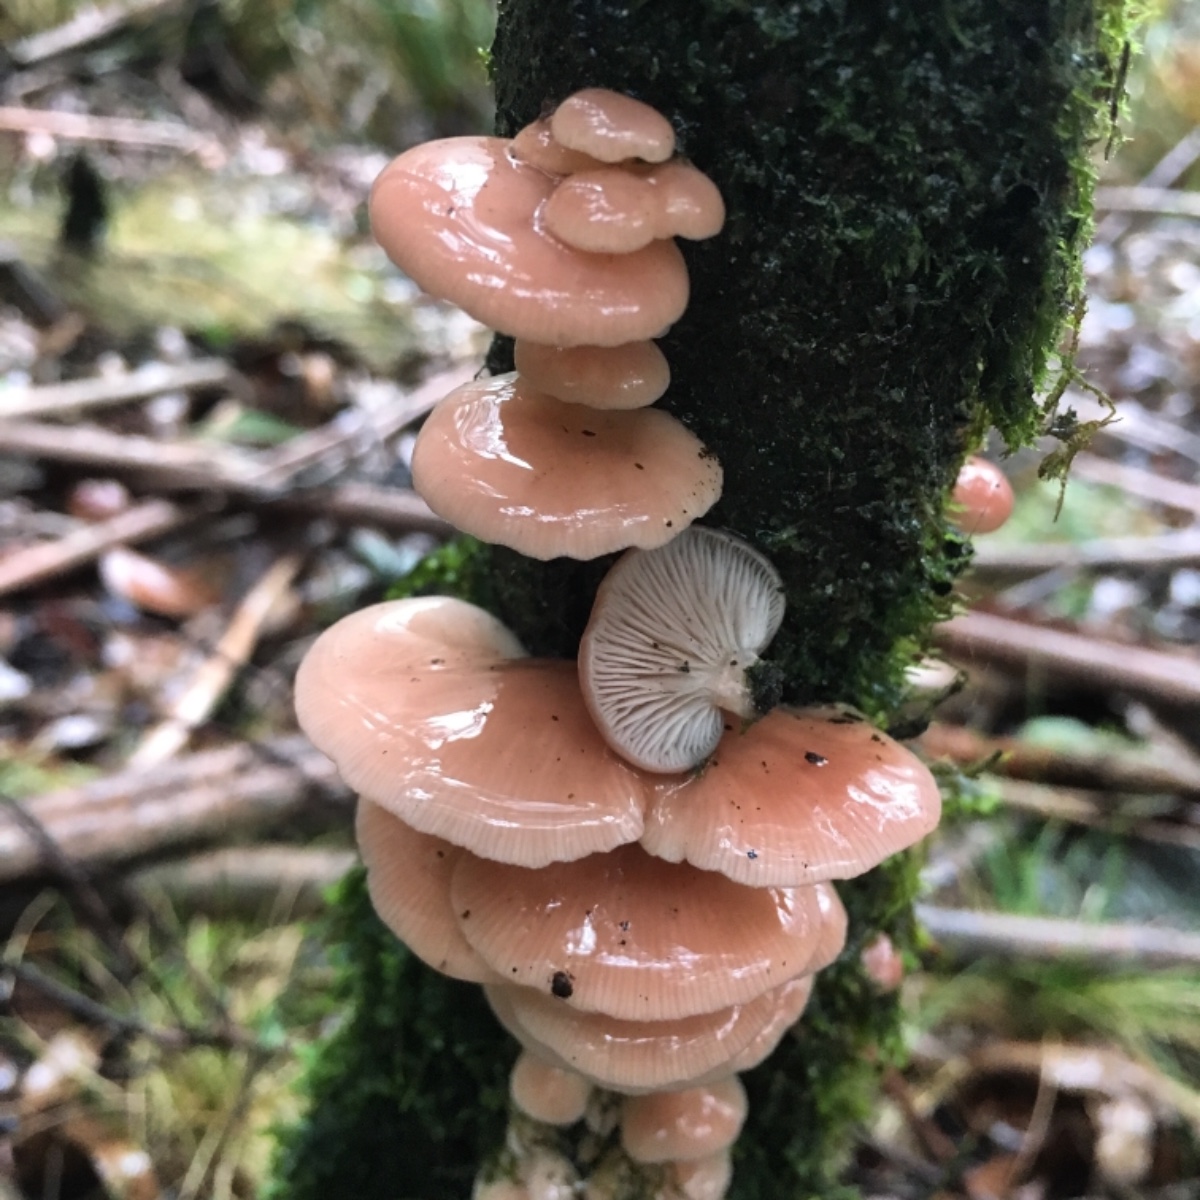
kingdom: Fungi
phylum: Basidiomycota
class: Agaricomycetes
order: Agaricales
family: Mycenaceae
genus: Panellus
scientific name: Panellus longinquus
